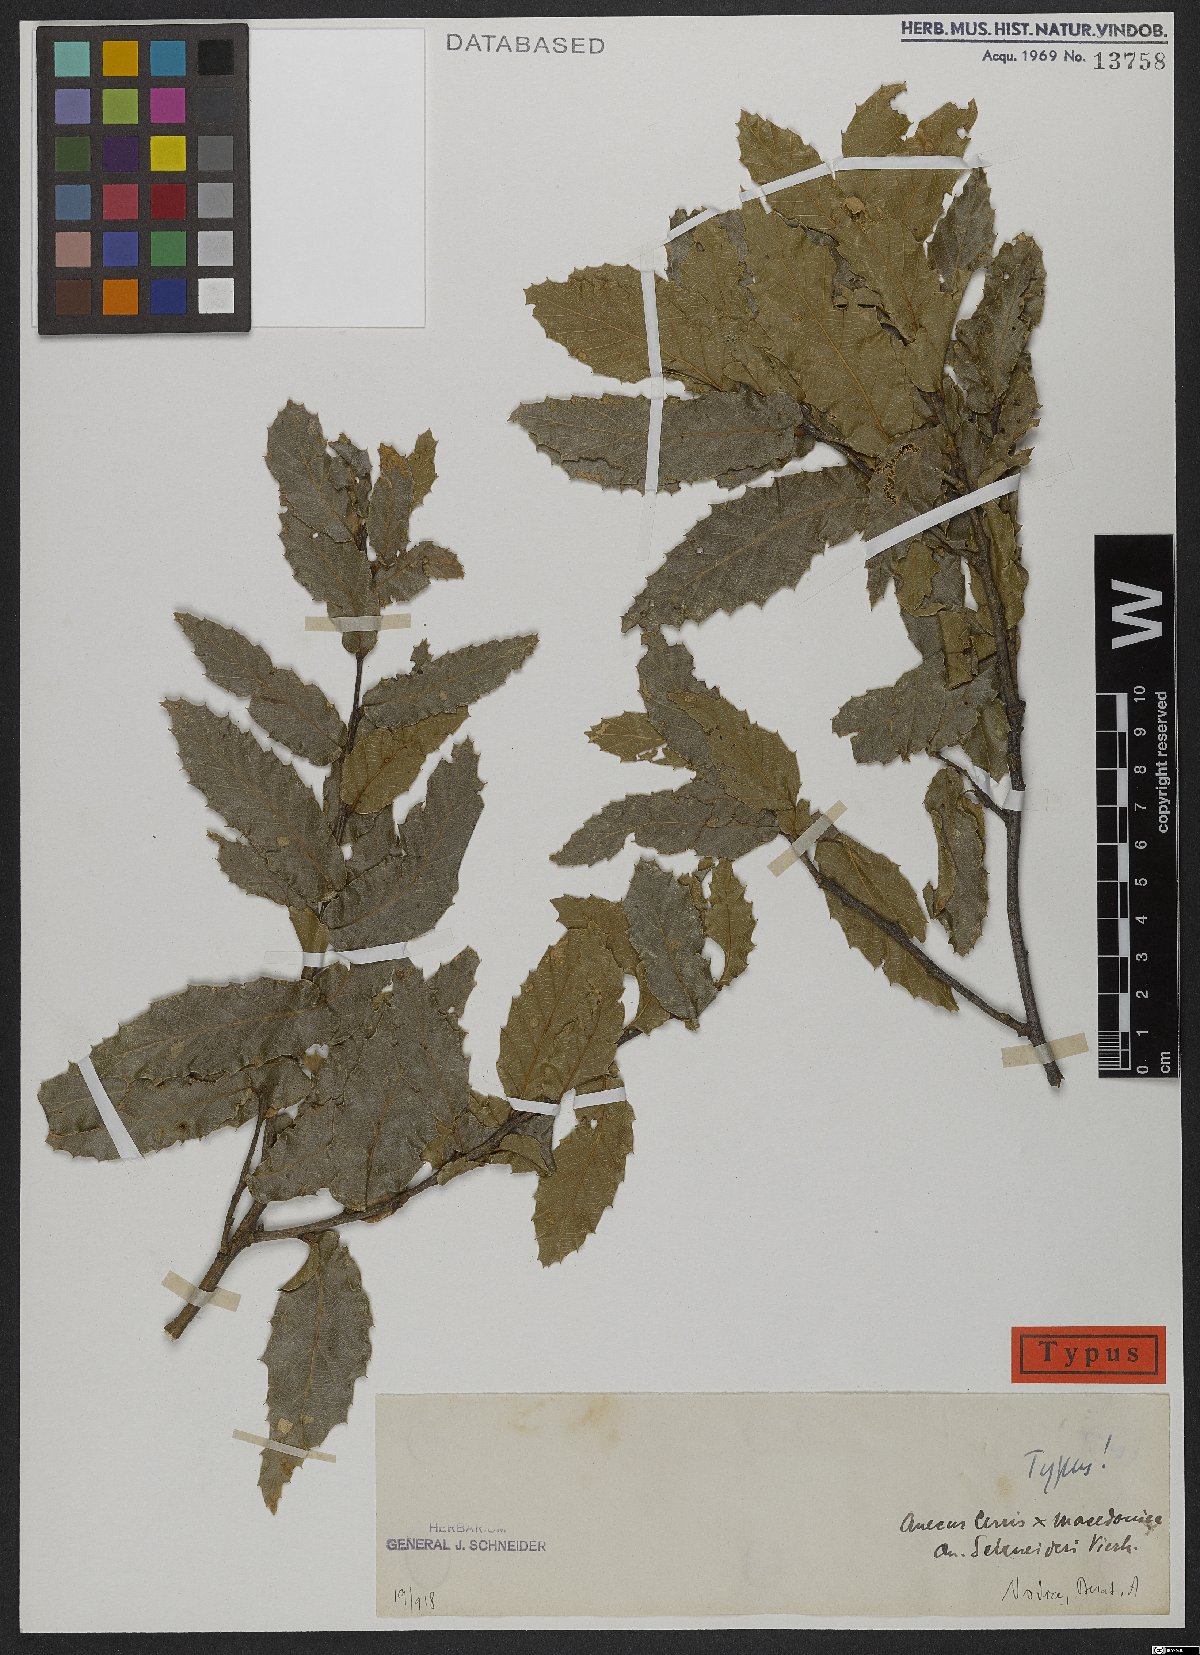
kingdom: Plantae
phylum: Tracheophyta
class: Magnoliopsida
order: Fagales
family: Fagaceae
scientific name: Fagaceae
